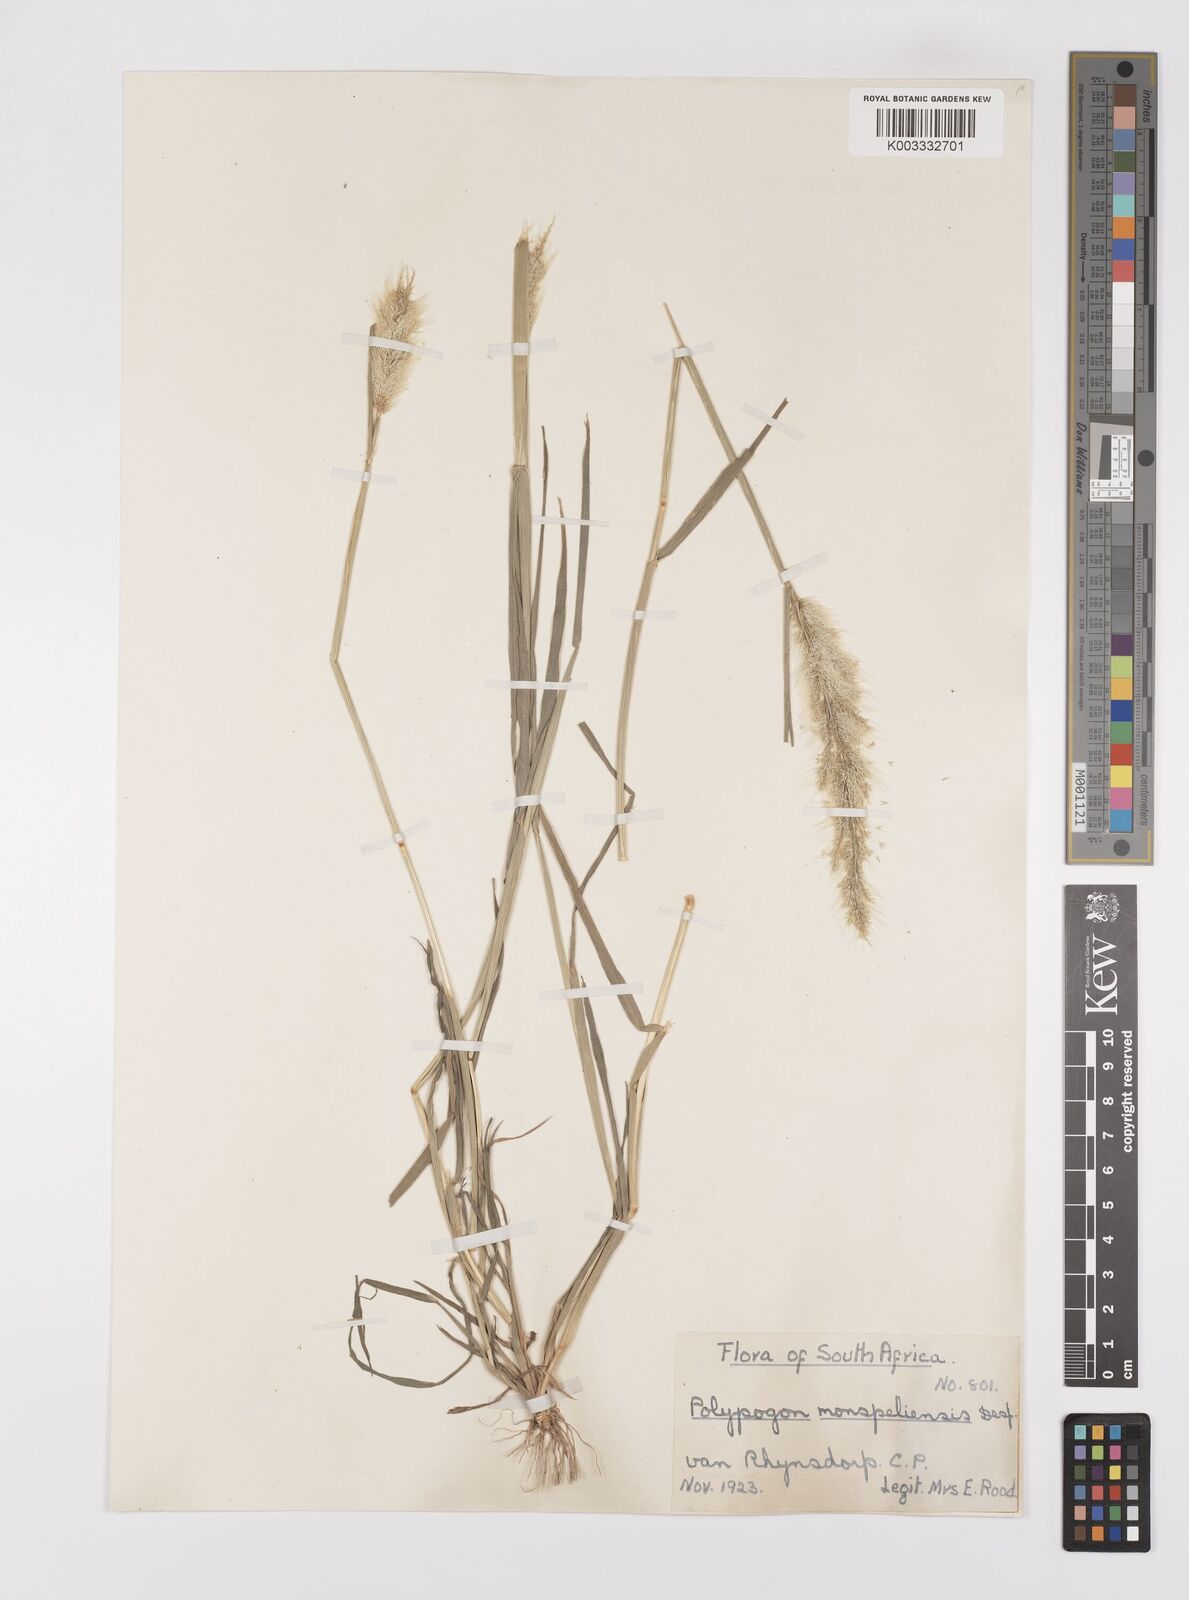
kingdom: Plantae
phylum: Tracheophyta
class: Liliopsida
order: Poales
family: Poaceae
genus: Polypogon
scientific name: Polypogon monspeliensis
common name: Annual rabbitsfoot grass
